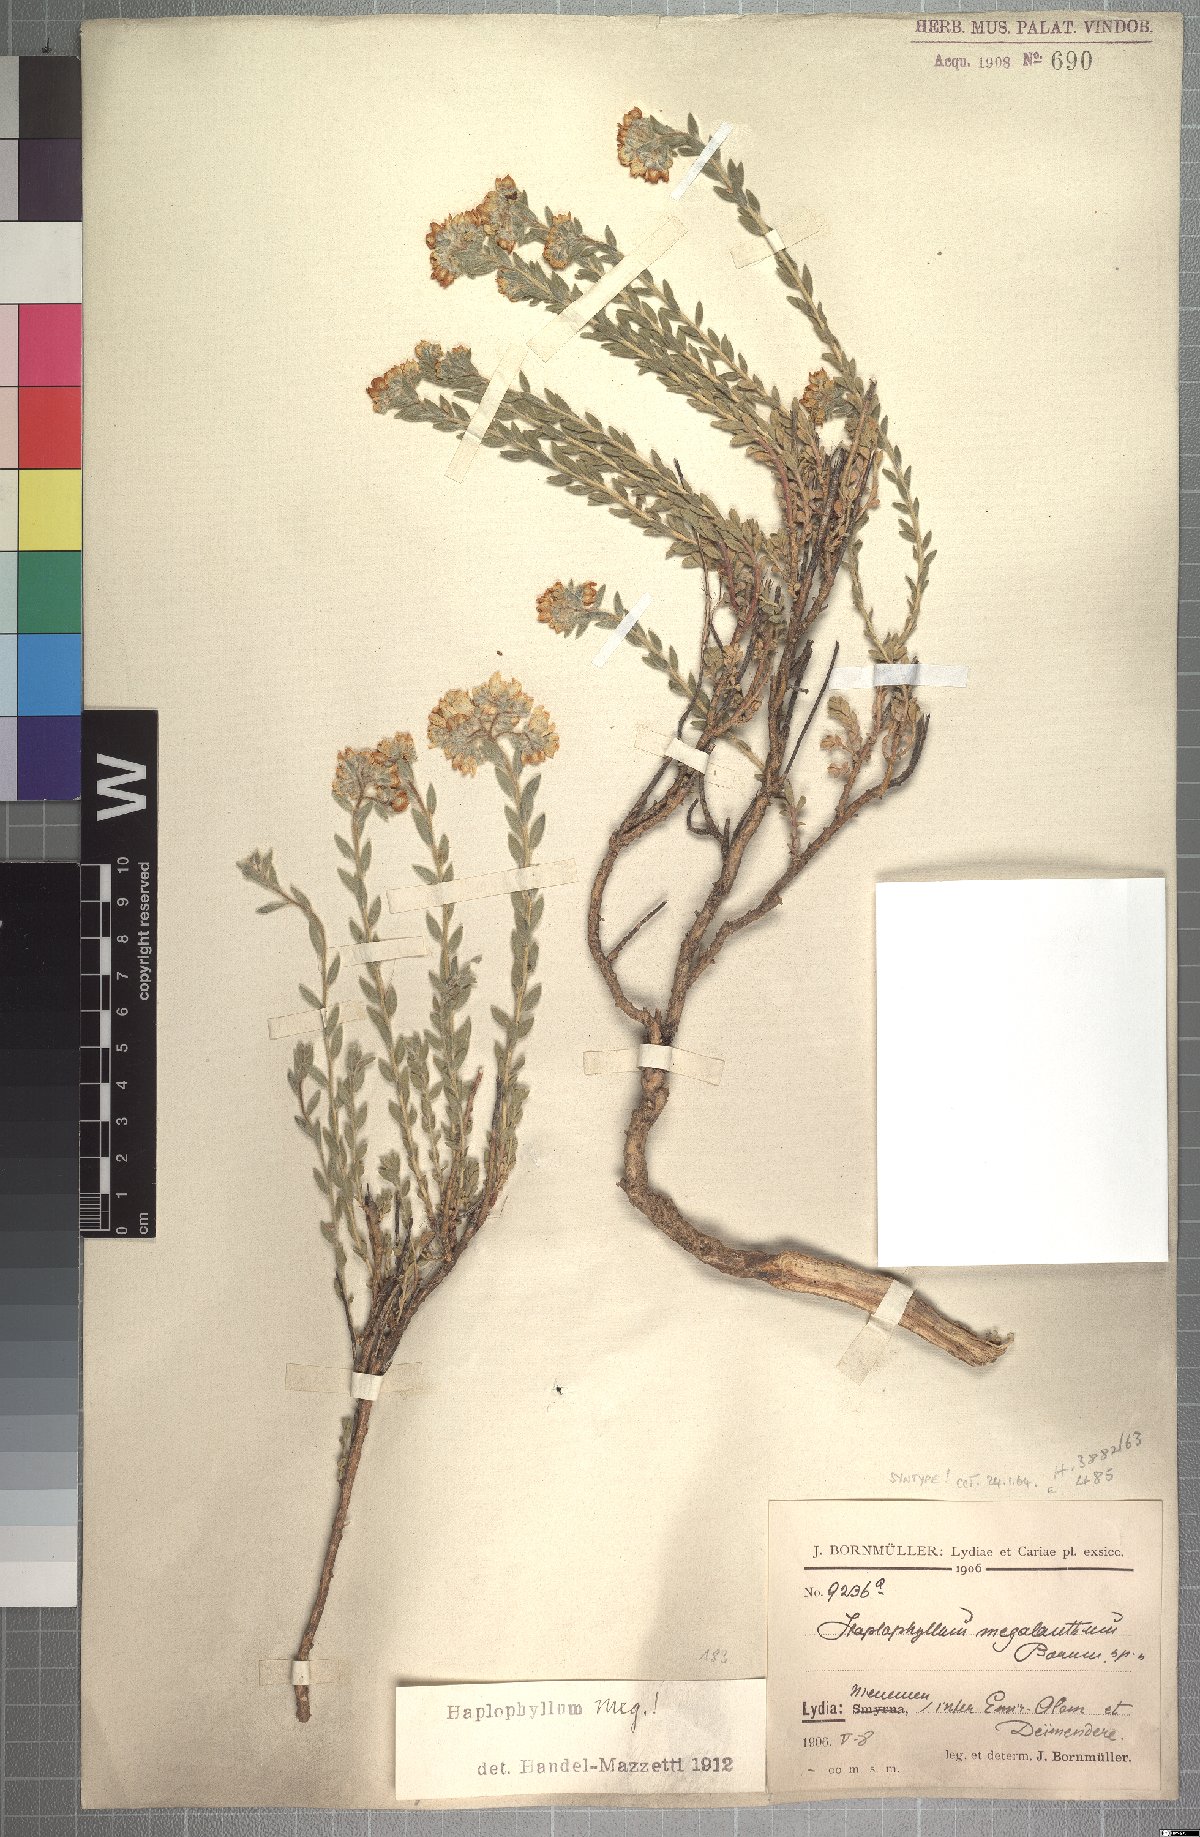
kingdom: Plantae
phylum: Tracheophyta
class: Magnoliopsida
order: Sapindales
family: Rutaceae
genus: Haplophyllum
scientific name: Haplophyllum megalanthum
